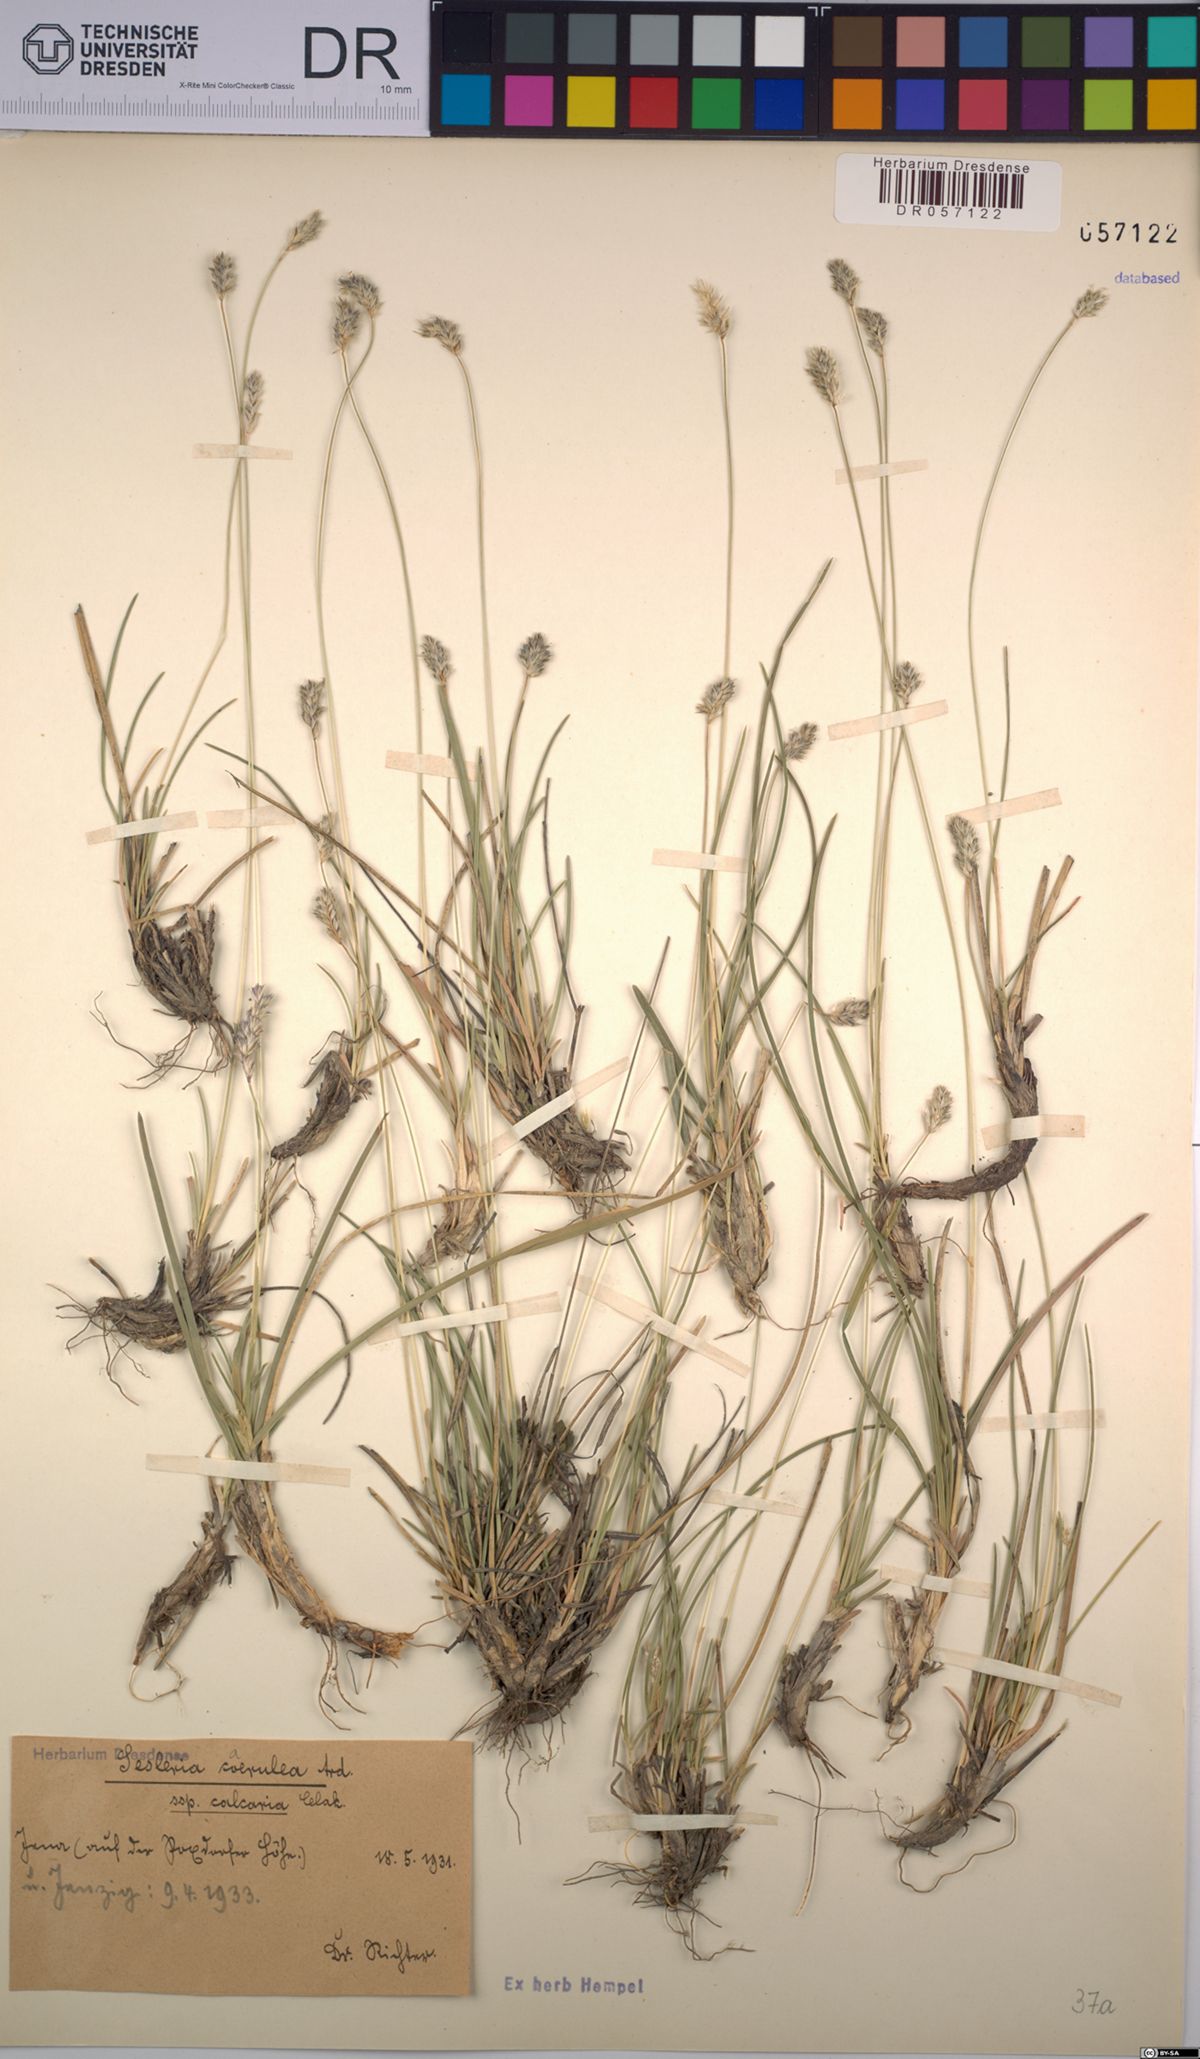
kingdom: Plantae
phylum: Tracheophyta
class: Liliopsida
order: Poales
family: Poaceae
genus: Sesleria
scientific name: Sesleria caerulea
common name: Blue moor-grass
